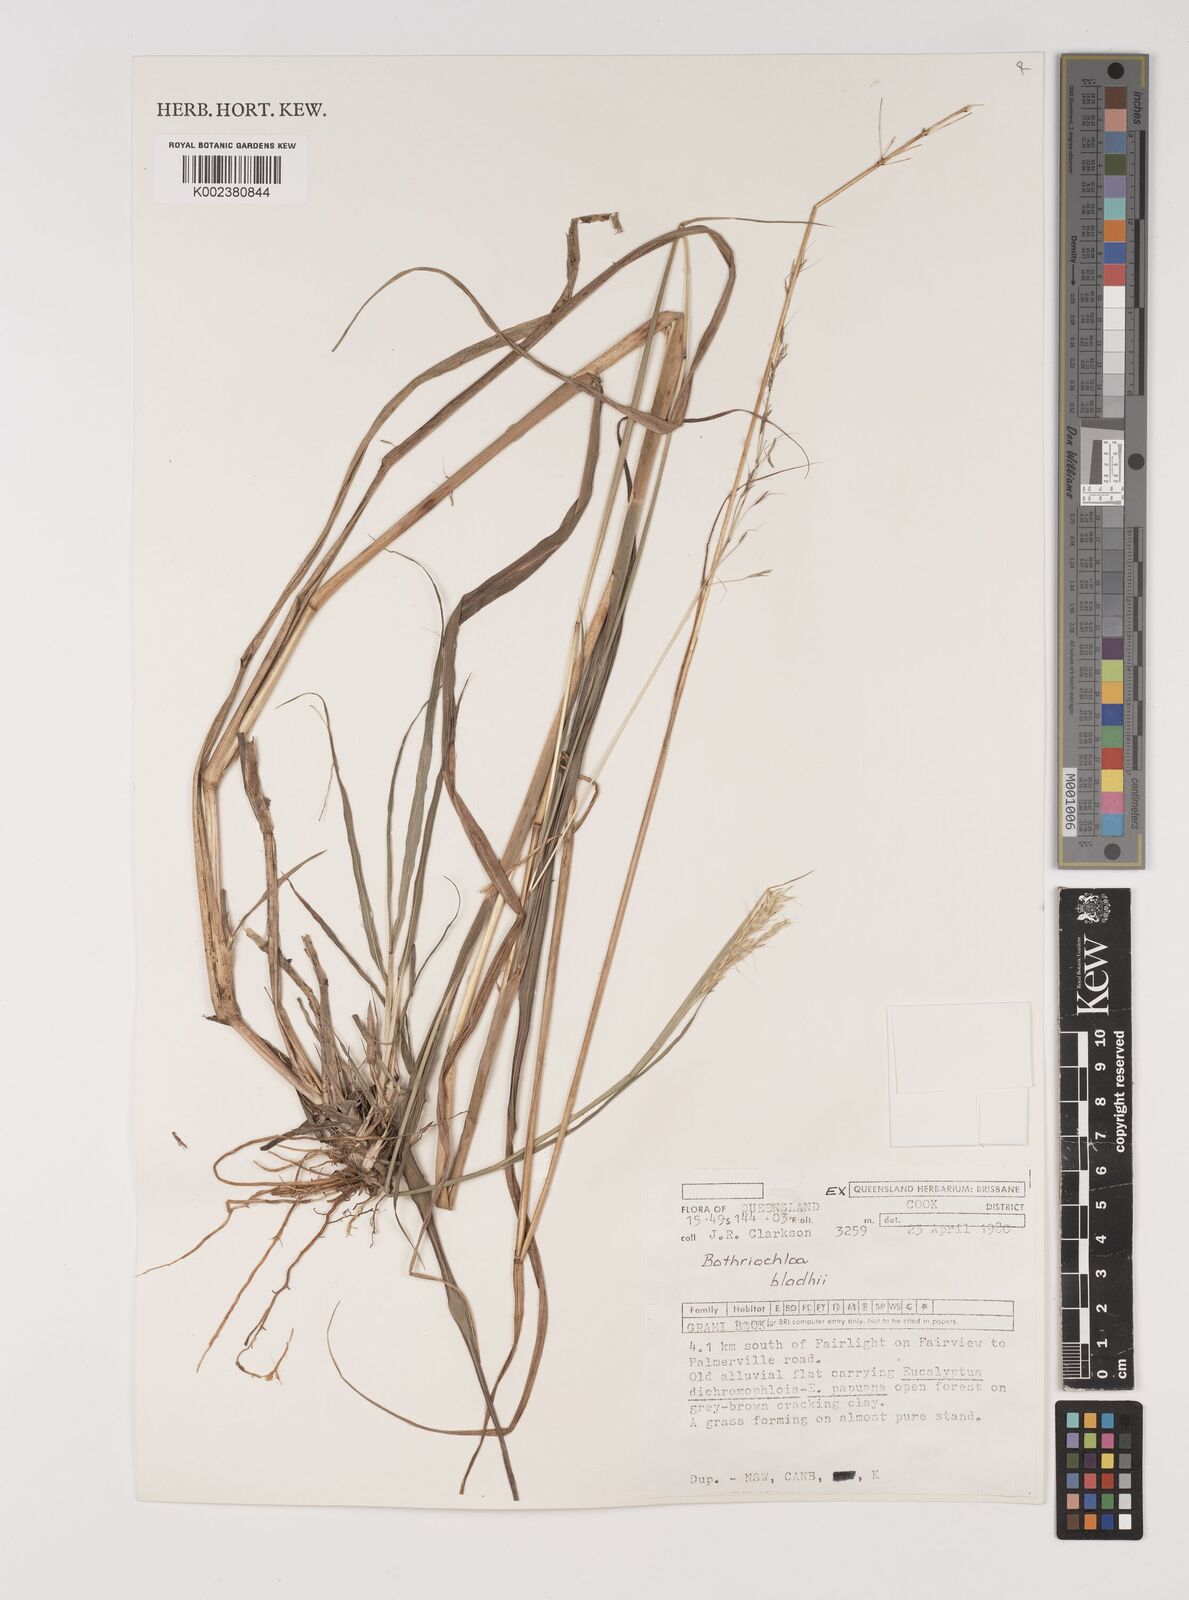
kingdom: Plantae
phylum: Tracheophyta
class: Liliopsida
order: Poales
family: Poaceae
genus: Bothriochloa
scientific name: Bothriochloa bladhii
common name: Caucasian bluestem
